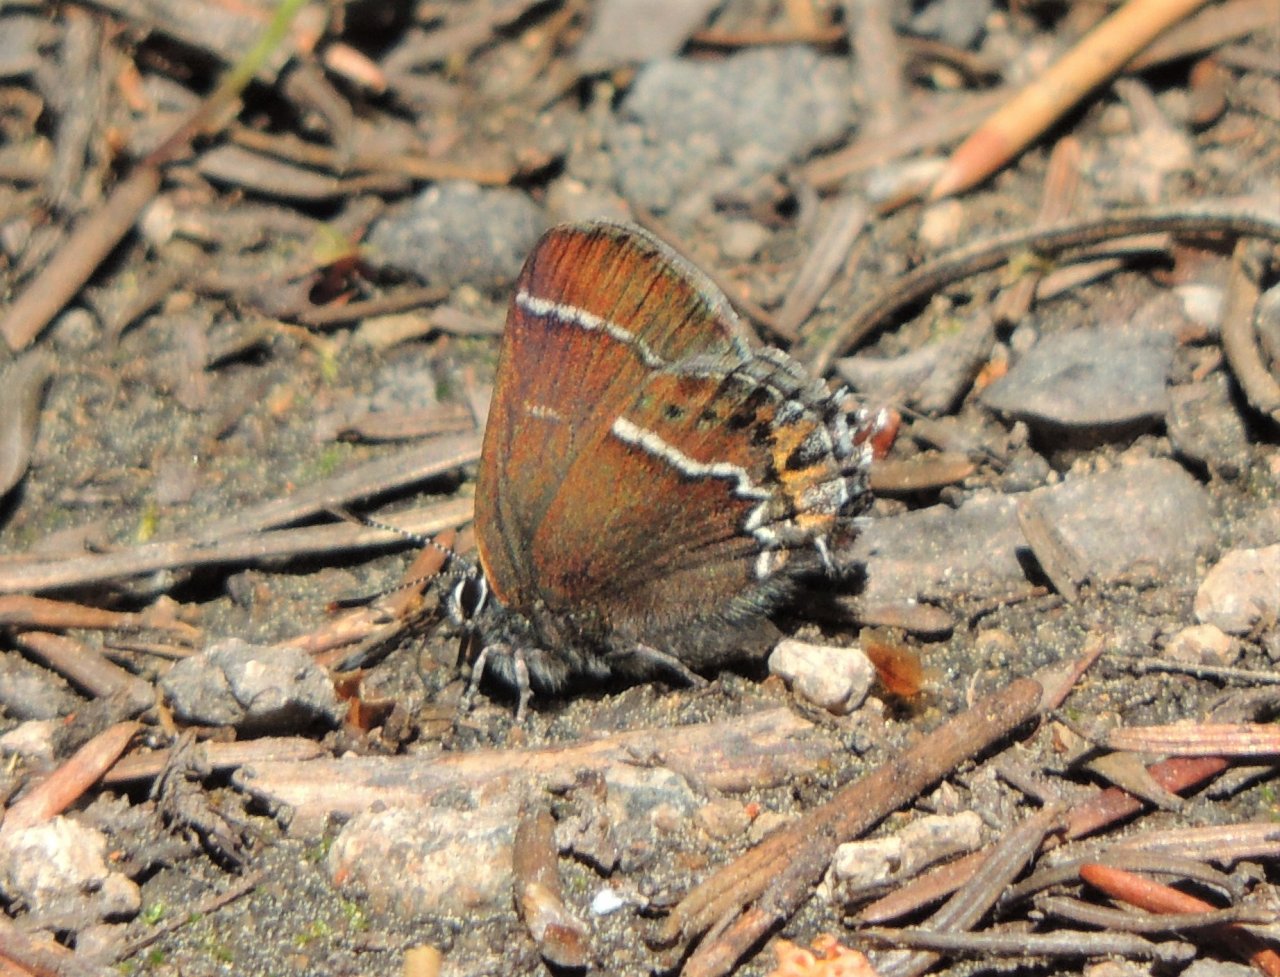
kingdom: Animalia
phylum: Arthropoda
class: Insecta
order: Lepidoptera
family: Lycaenidae
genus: Mitoura
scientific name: Mitoura spinetorum
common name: Thicket Hairstreak
